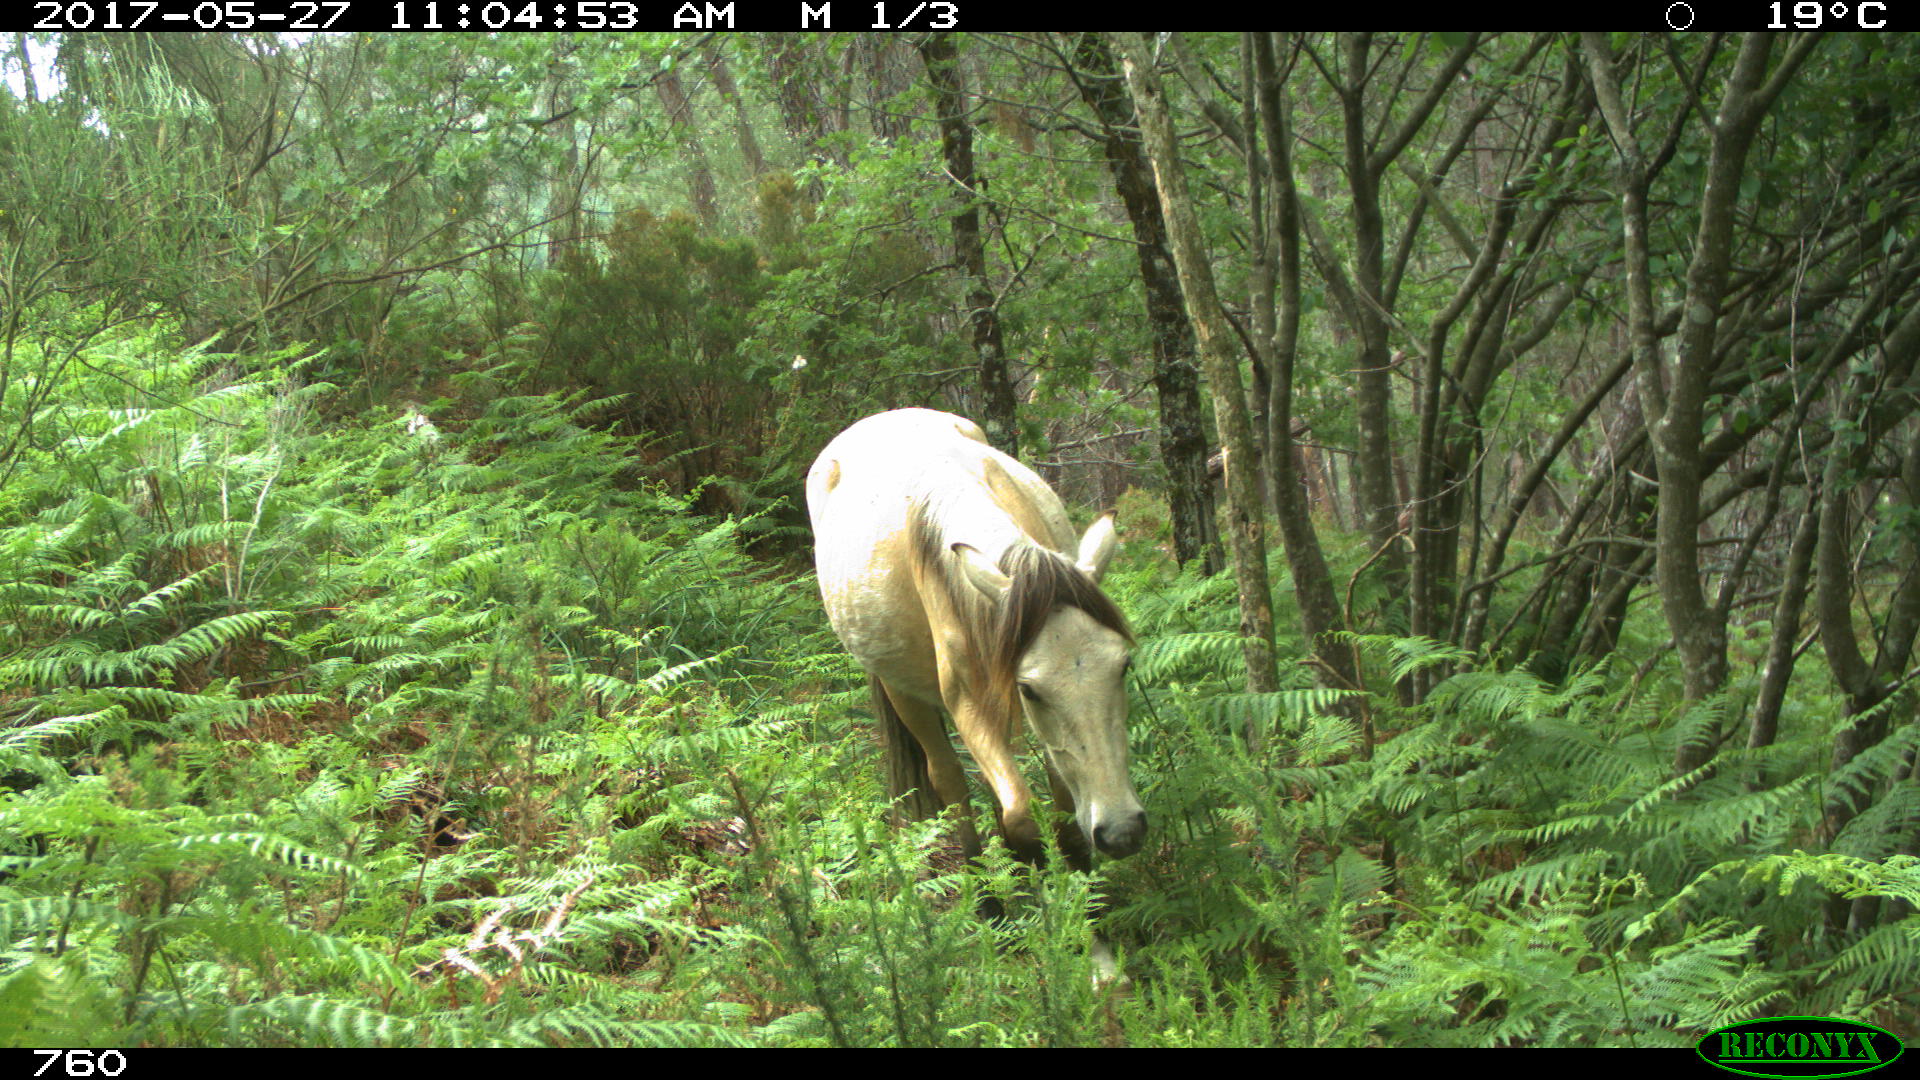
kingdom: Animalia
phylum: Chordata
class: Mammalia
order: Perissodactyla
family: Equidae
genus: Equus
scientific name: Equus caballus
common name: Horse
